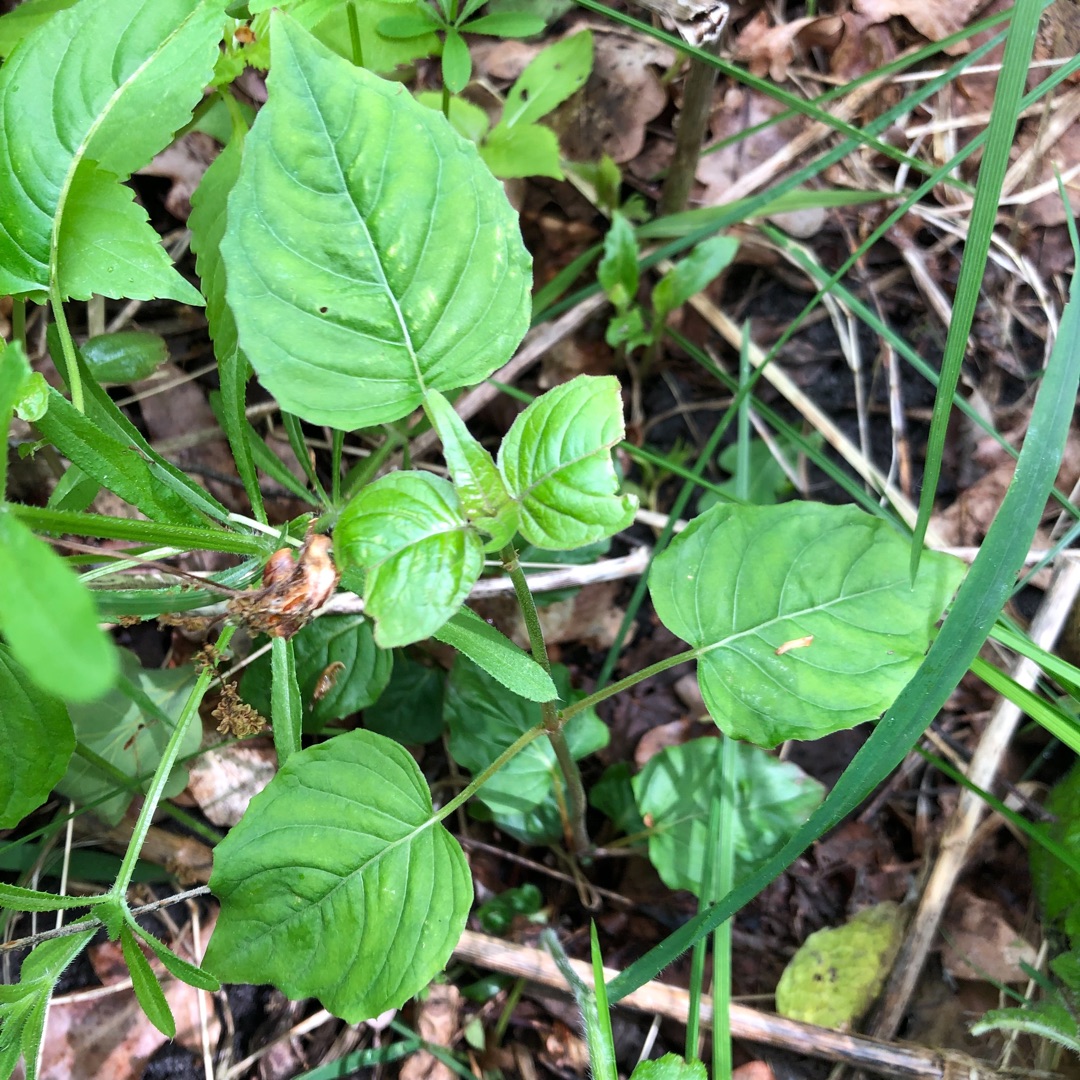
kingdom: Plantae
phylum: Tracheophyta
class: Magnoliopsida
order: Myrtales
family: Onagraceae
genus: Circaea
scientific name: Circaea lutetiana
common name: Dunet steffensurt
